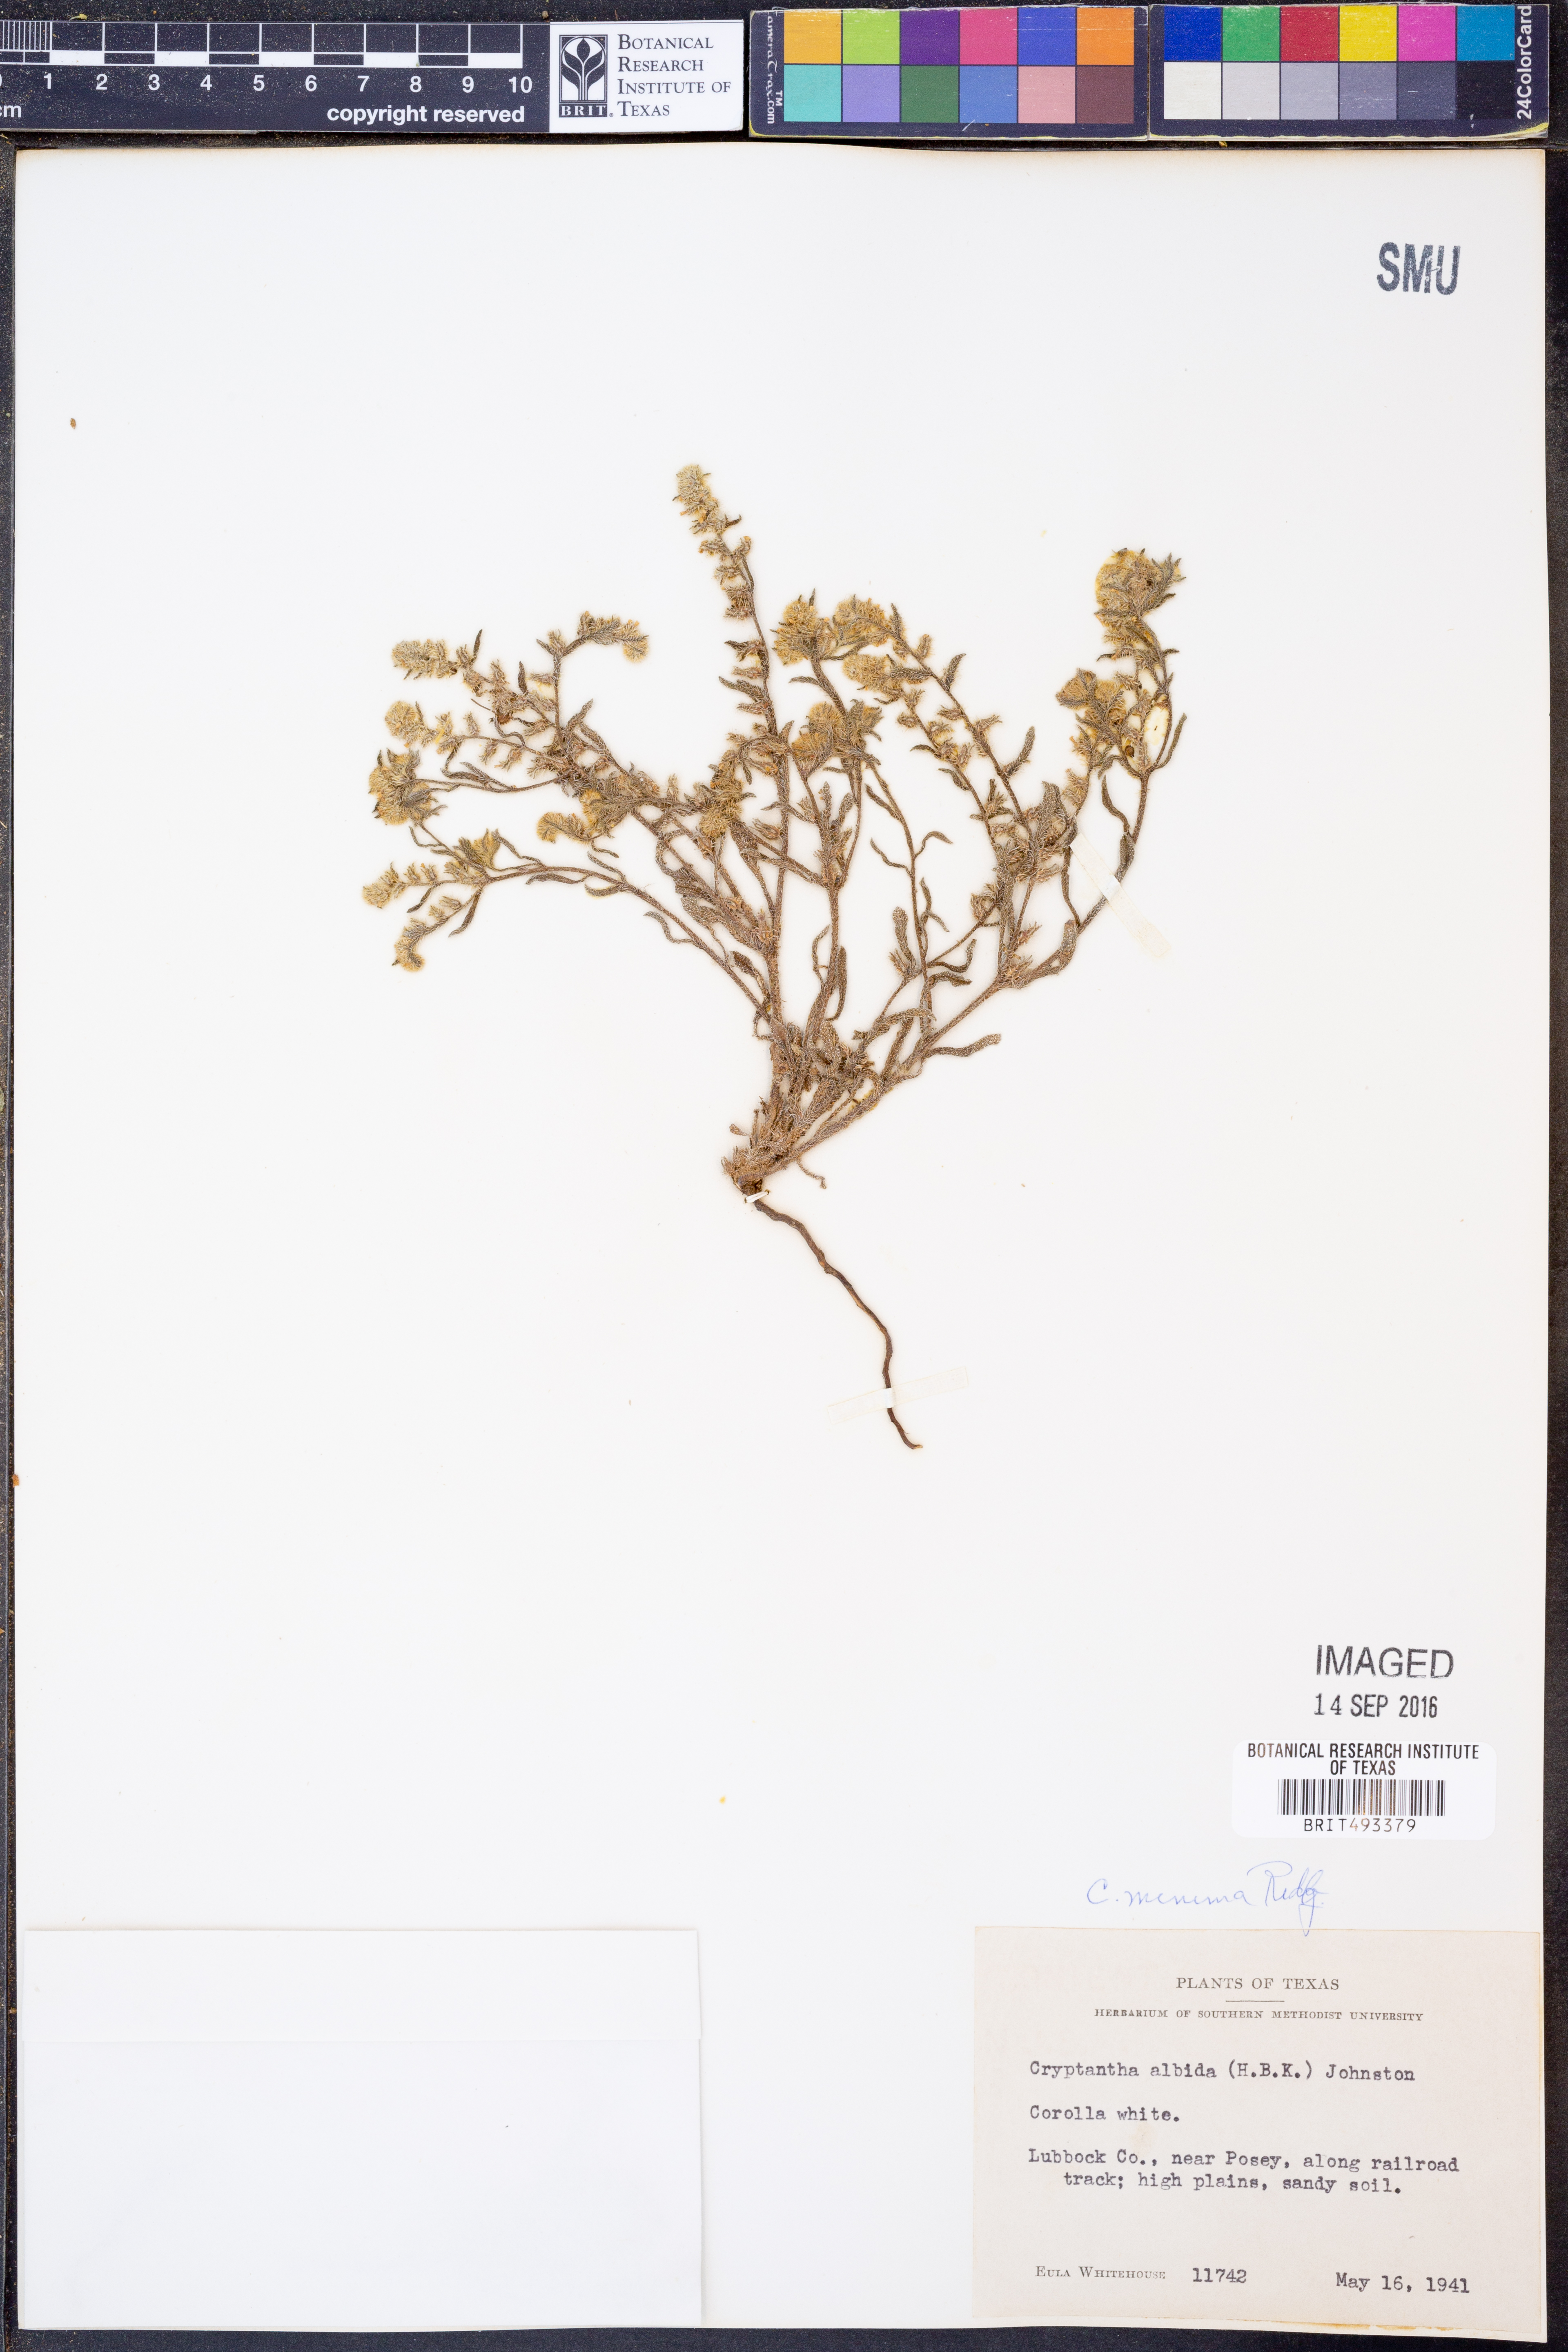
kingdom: Plantae
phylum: Tracheophyta
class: Magnoliopsida
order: Boraginales
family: Boraginaceae
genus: Cryptantha
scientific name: Cryptantha minima
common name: Little cat's-eye
